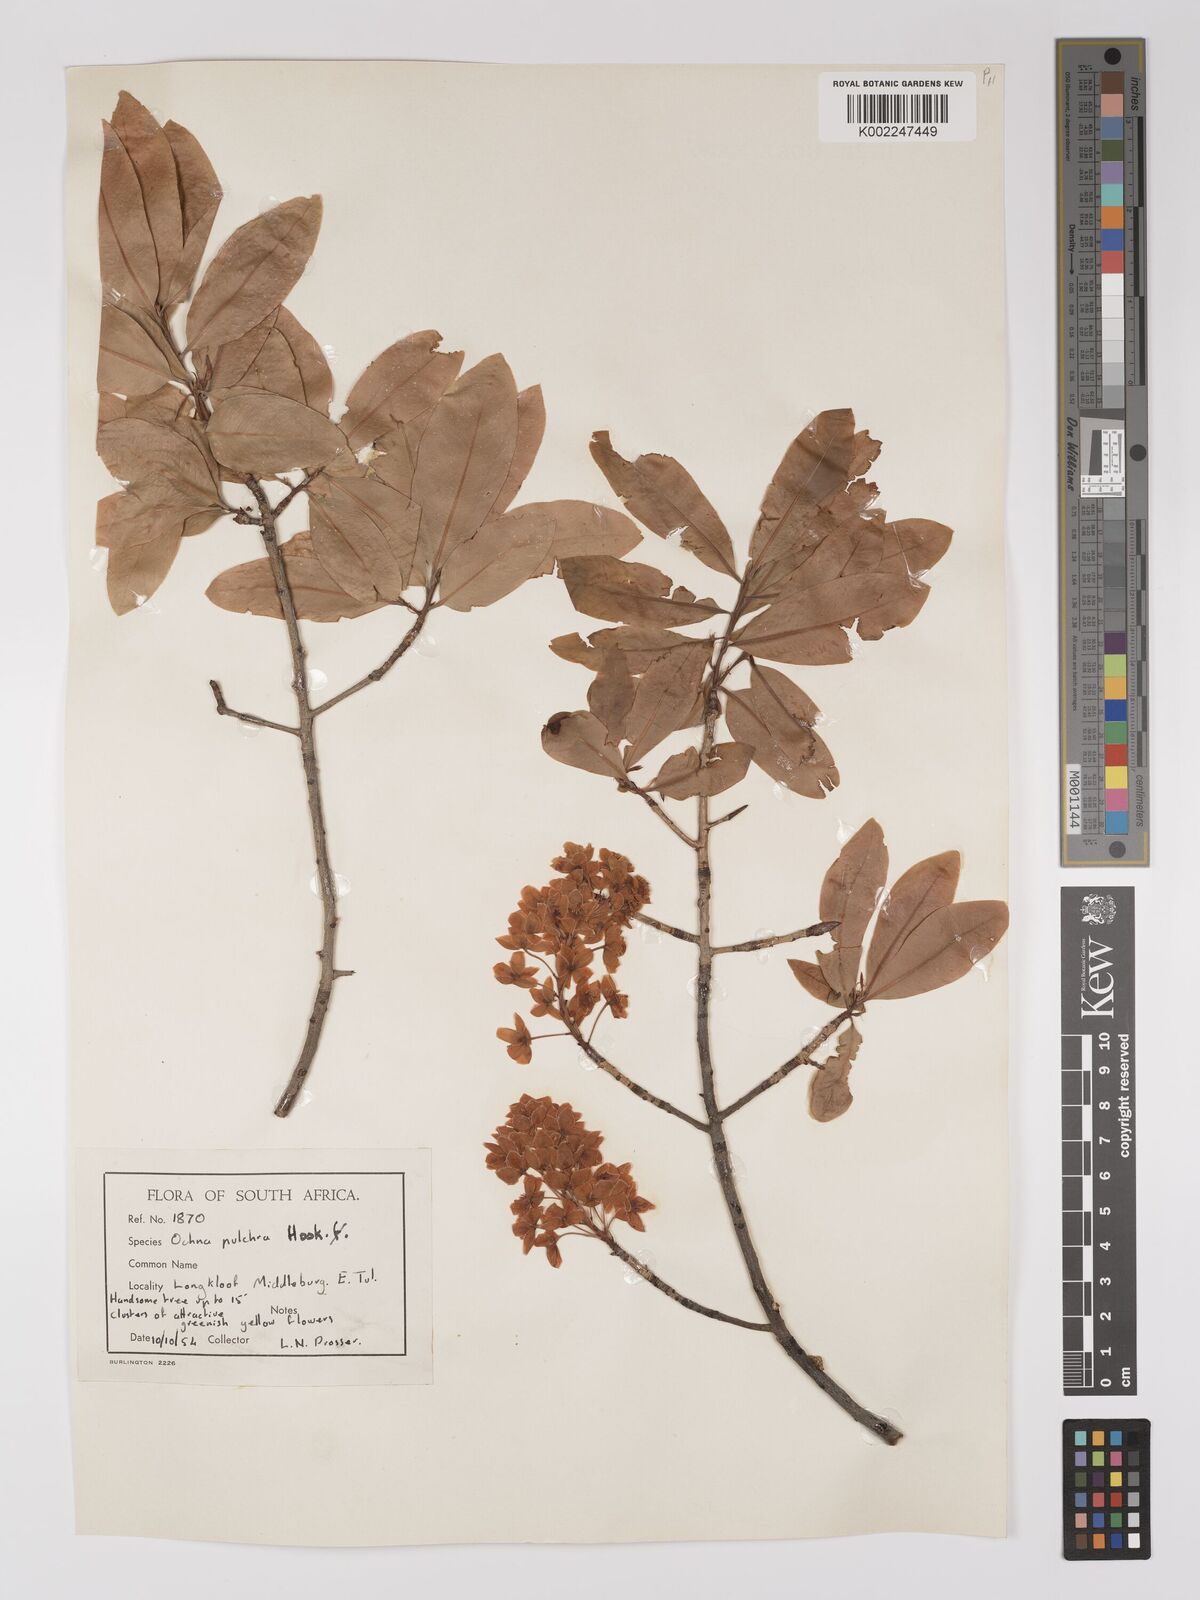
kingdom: Plantae
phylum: Tracheophyta
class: Magnoliopsida
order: Malpighiales
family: Ochnaceae
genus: Ochna
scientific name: Ochna pulchra
